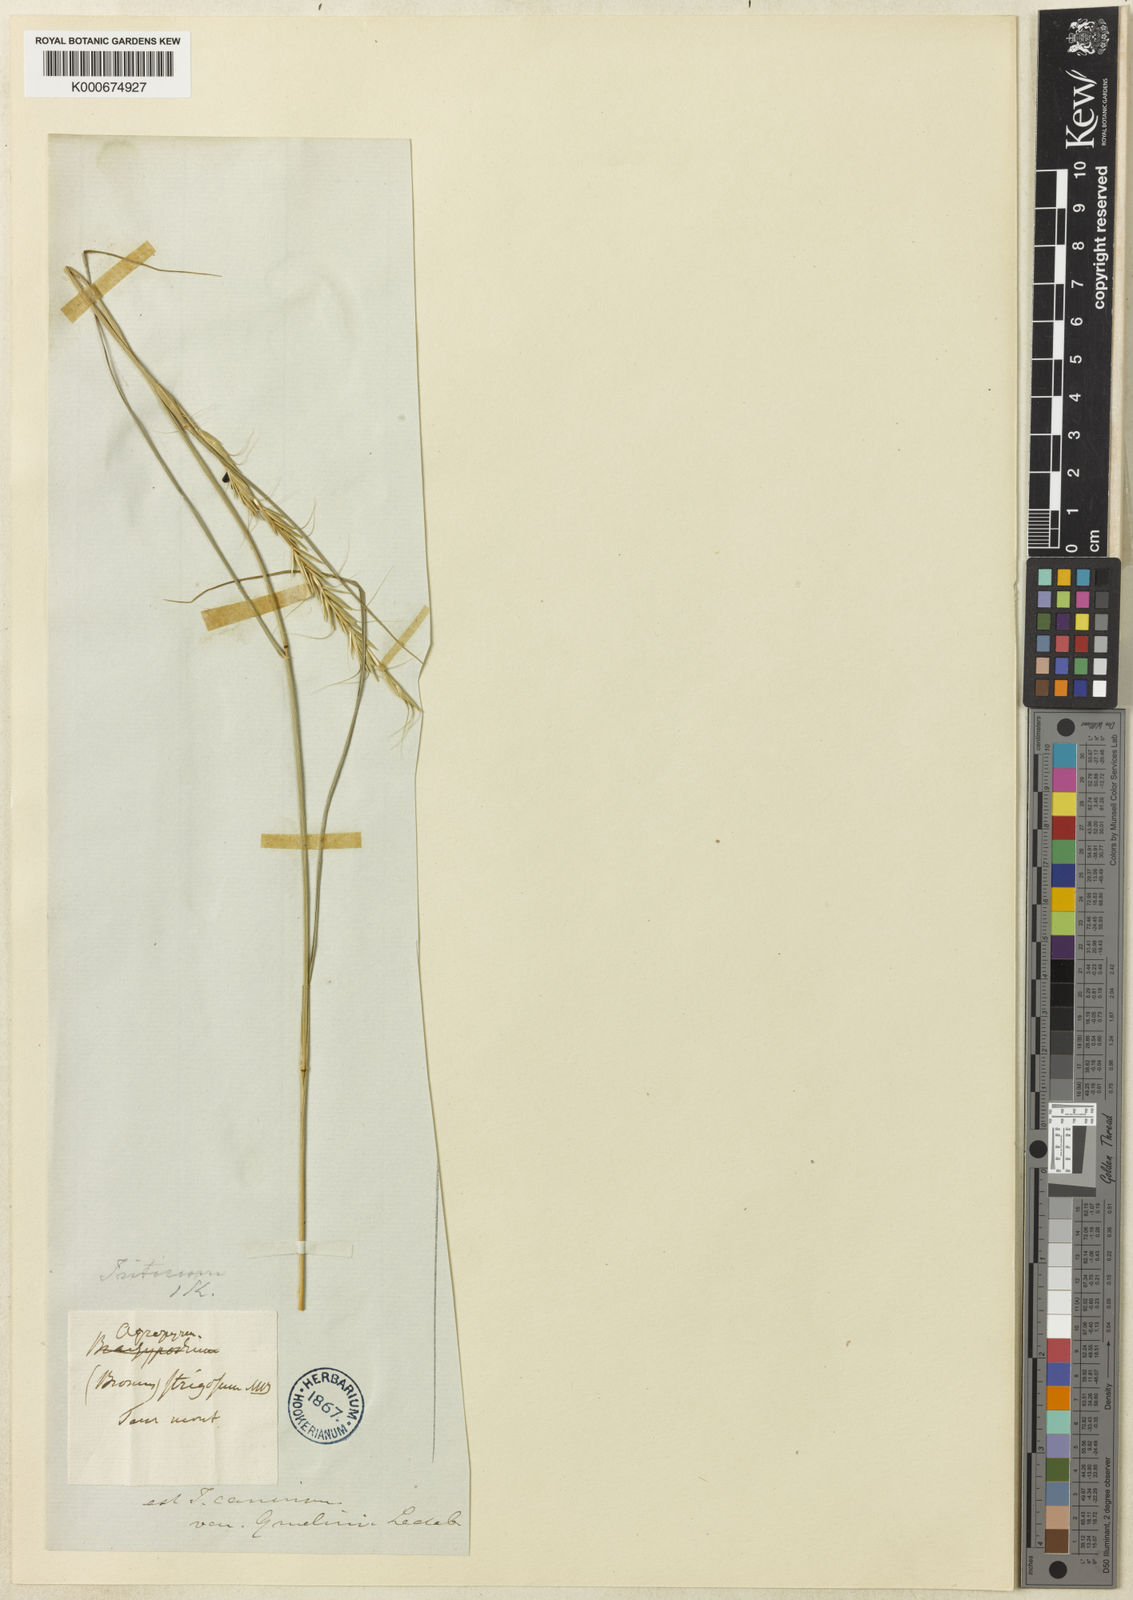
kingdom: Plantae
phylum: Tracheophyta
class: Liliopsida
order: Poales
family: Poaceae
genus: Pseudoroegneria
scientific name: Pseudoroegneria reflexiaristata
